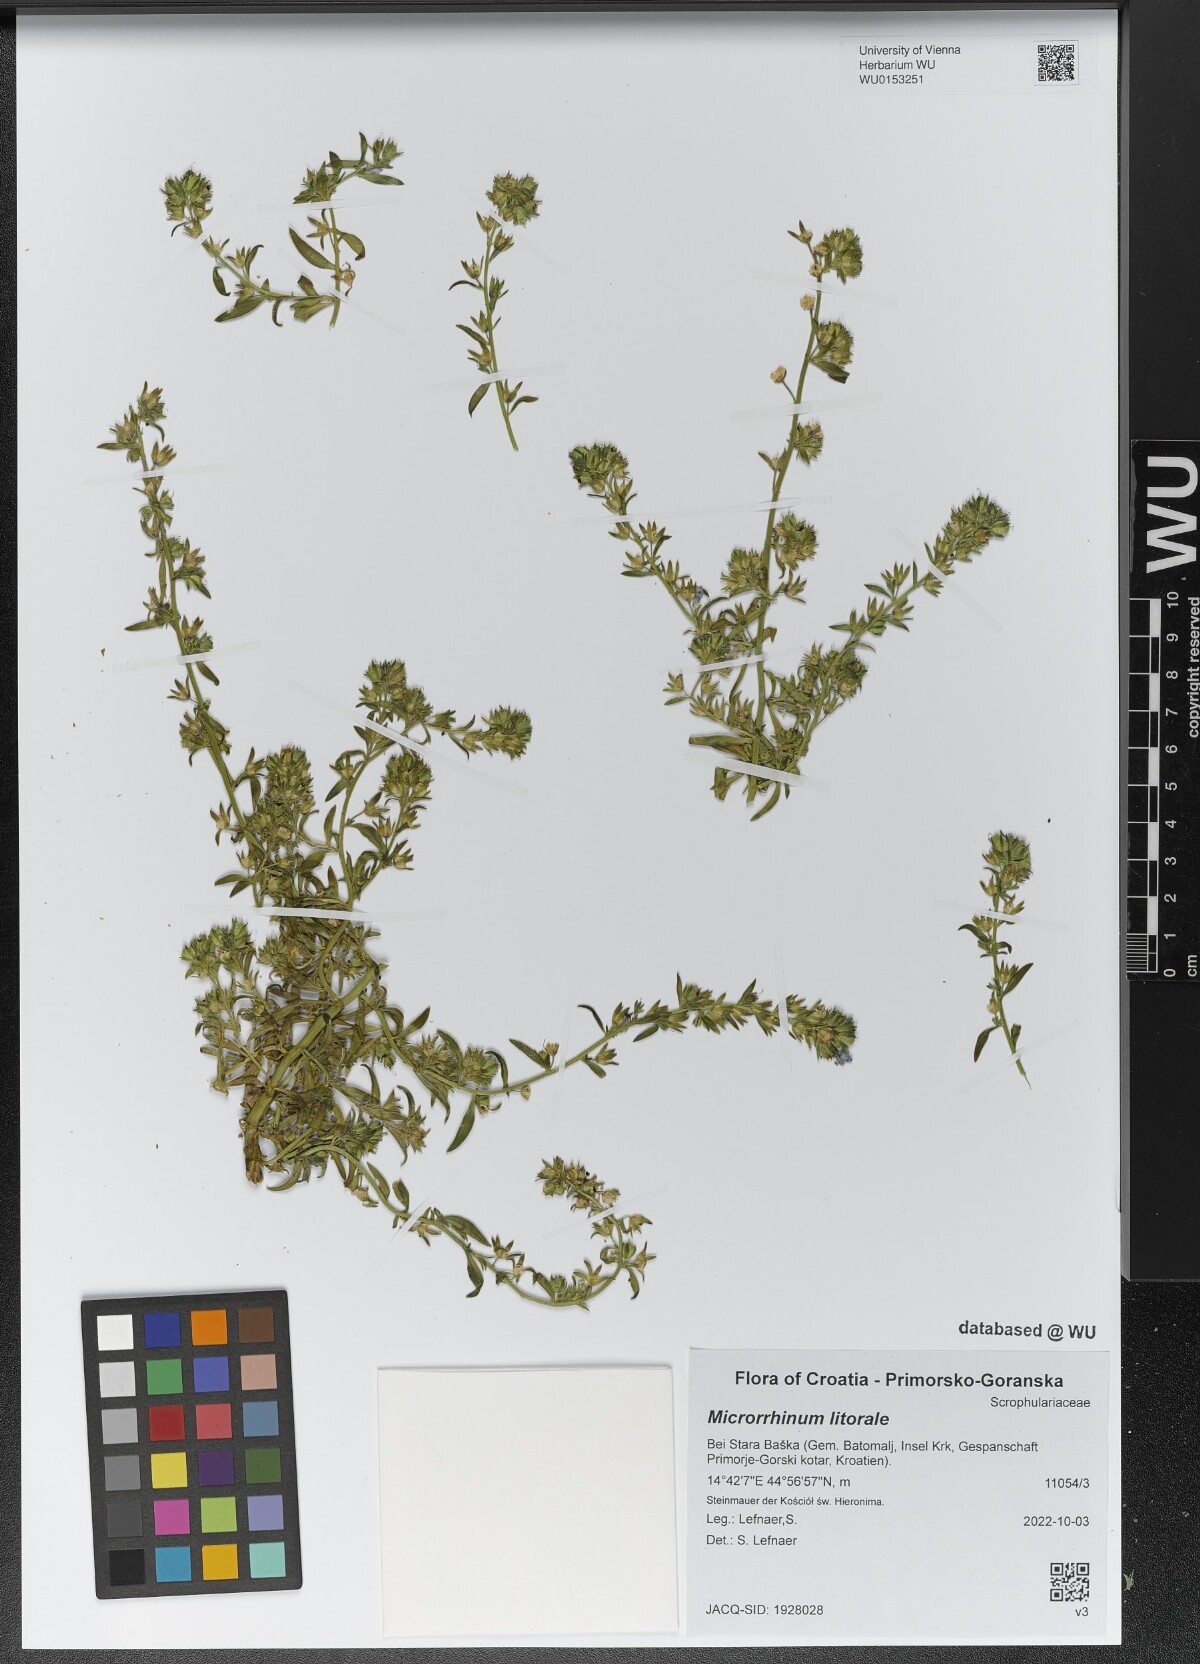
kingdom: Plantae
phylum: Tracheophyta
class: Magnoliopsida
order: Lamiales
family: Plantaginaceae
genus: Chaenorhinum
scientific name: Chaenorhinum litorale
